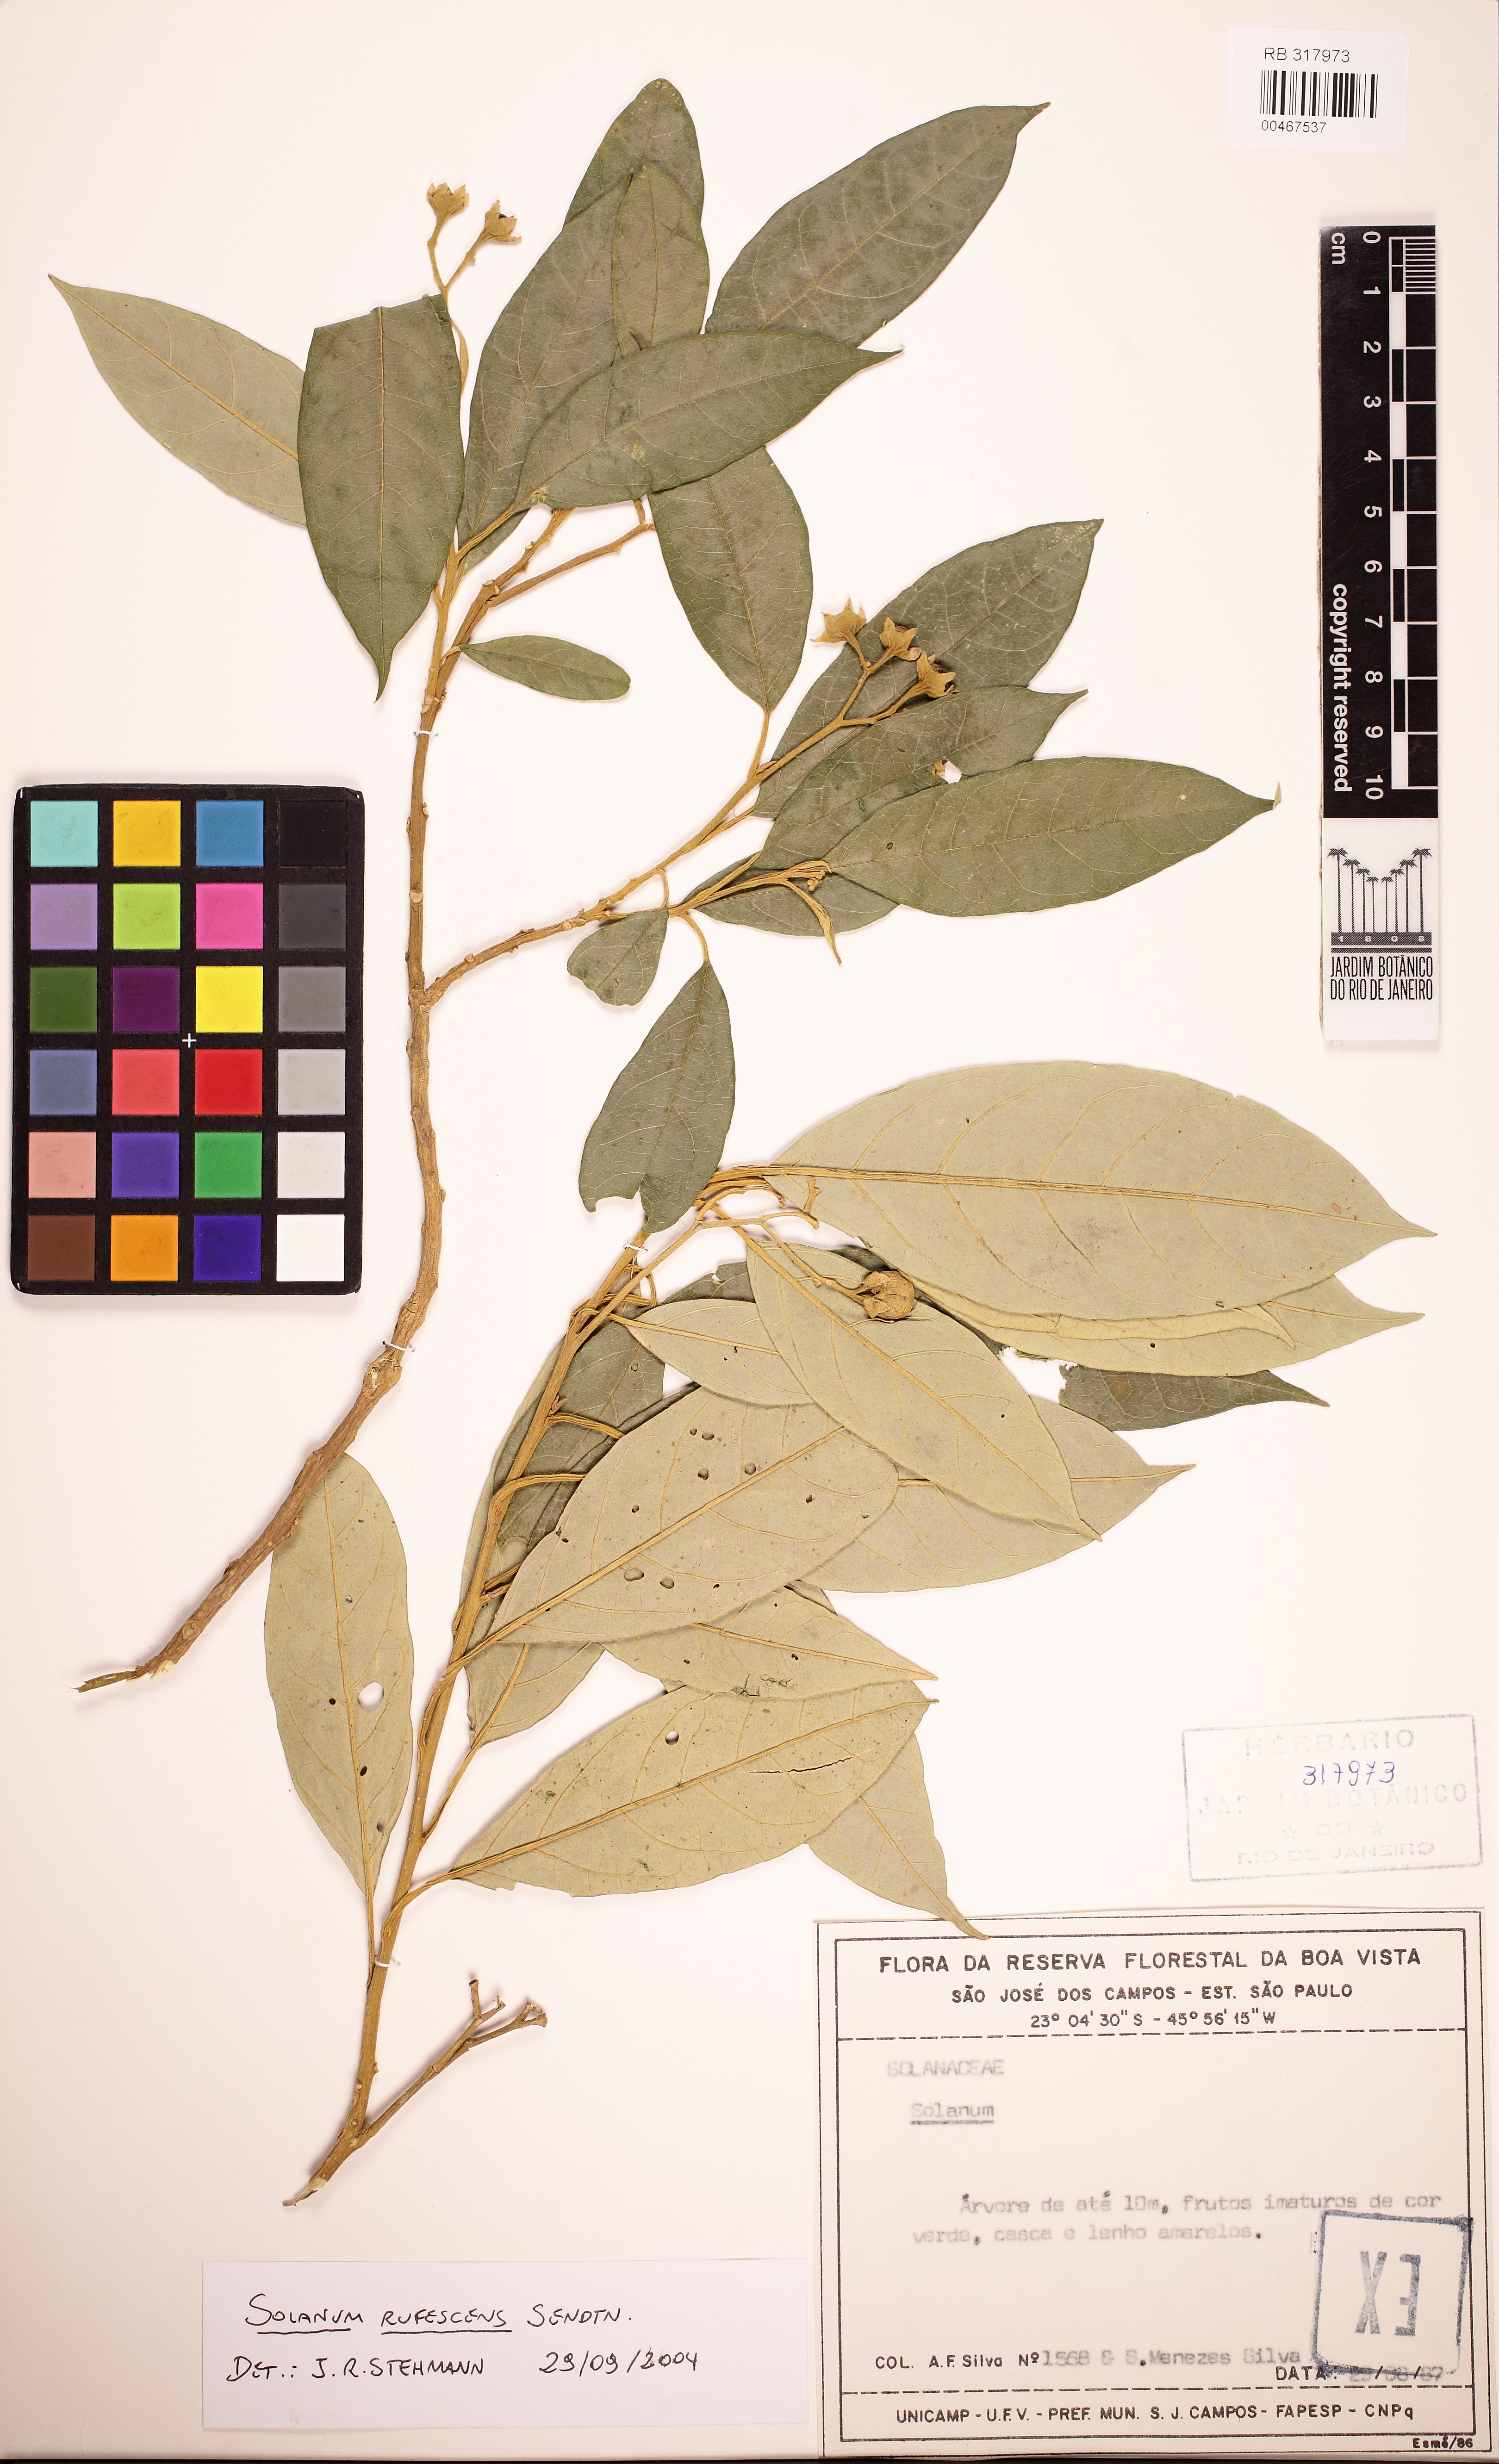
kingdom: Plantae
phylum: Tracheophyta
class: Magnoliopsida
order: Solanales
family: Solanaceae
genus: Solanum
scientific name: Solanum rufescens
